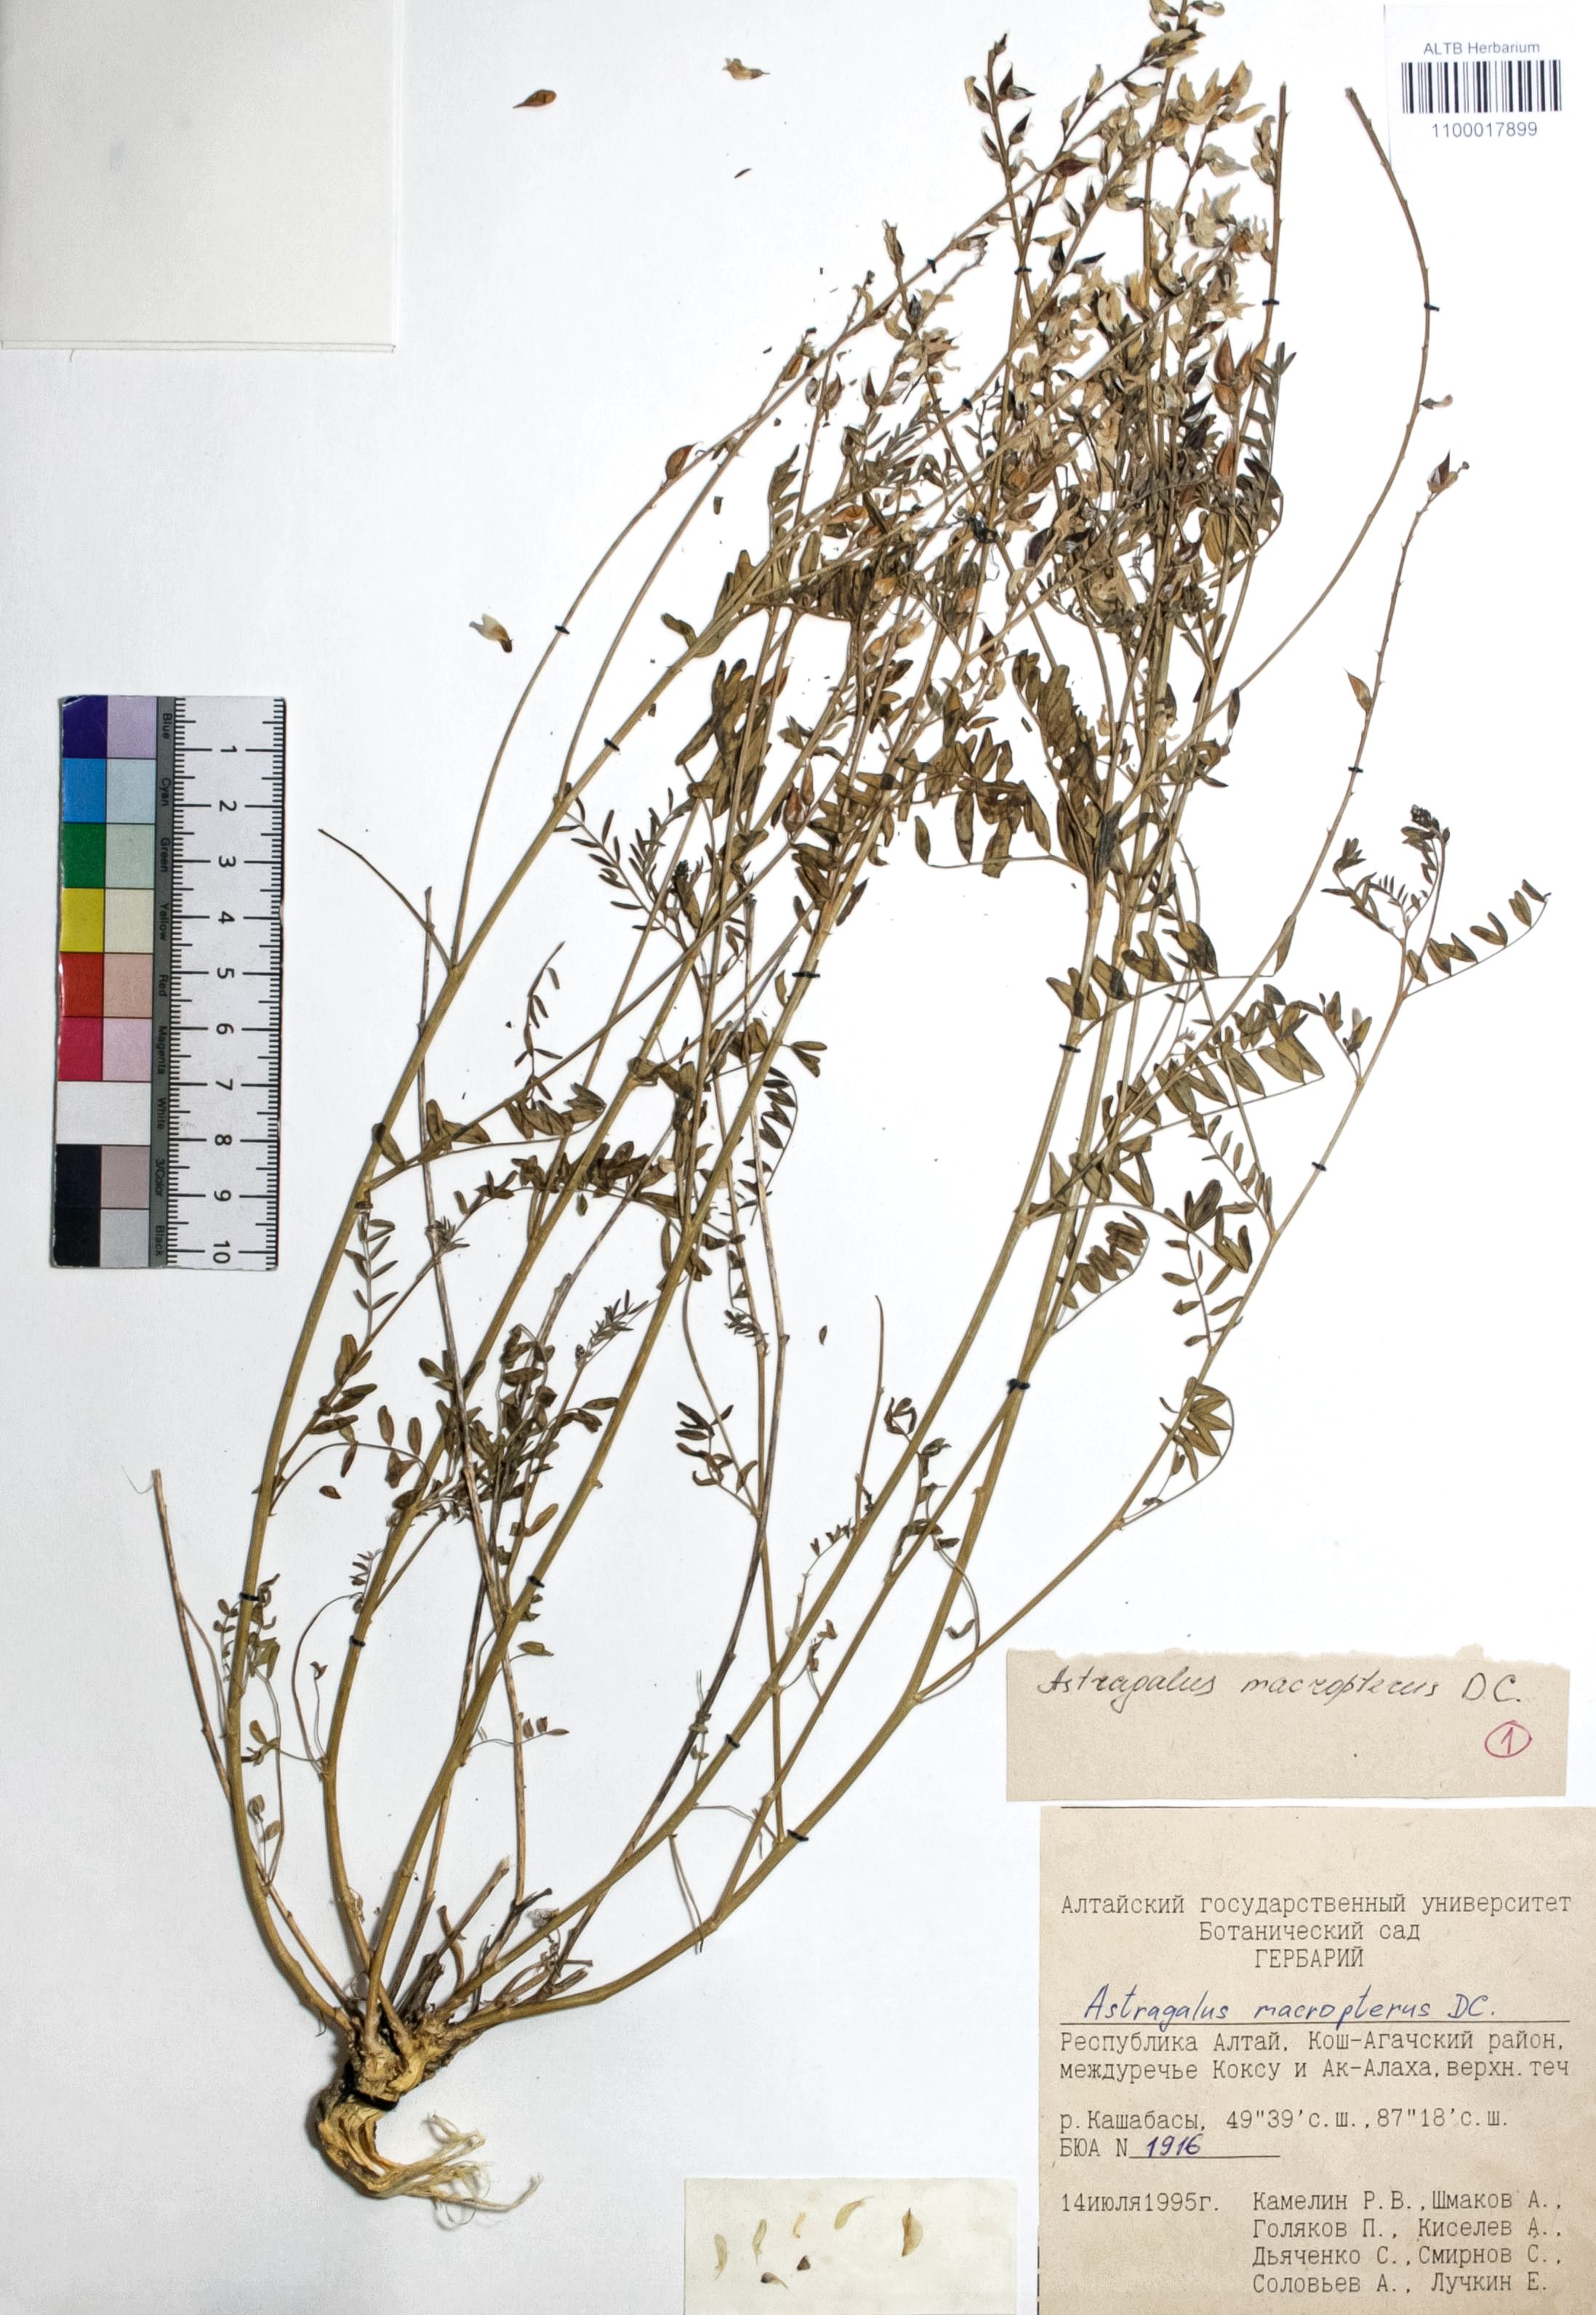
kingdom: Plantae
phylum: Tracheophyta
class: Magnoliopsida
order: Fabales
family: Fabaceae
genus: Astragalus
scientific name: Astragalus leptostachys
